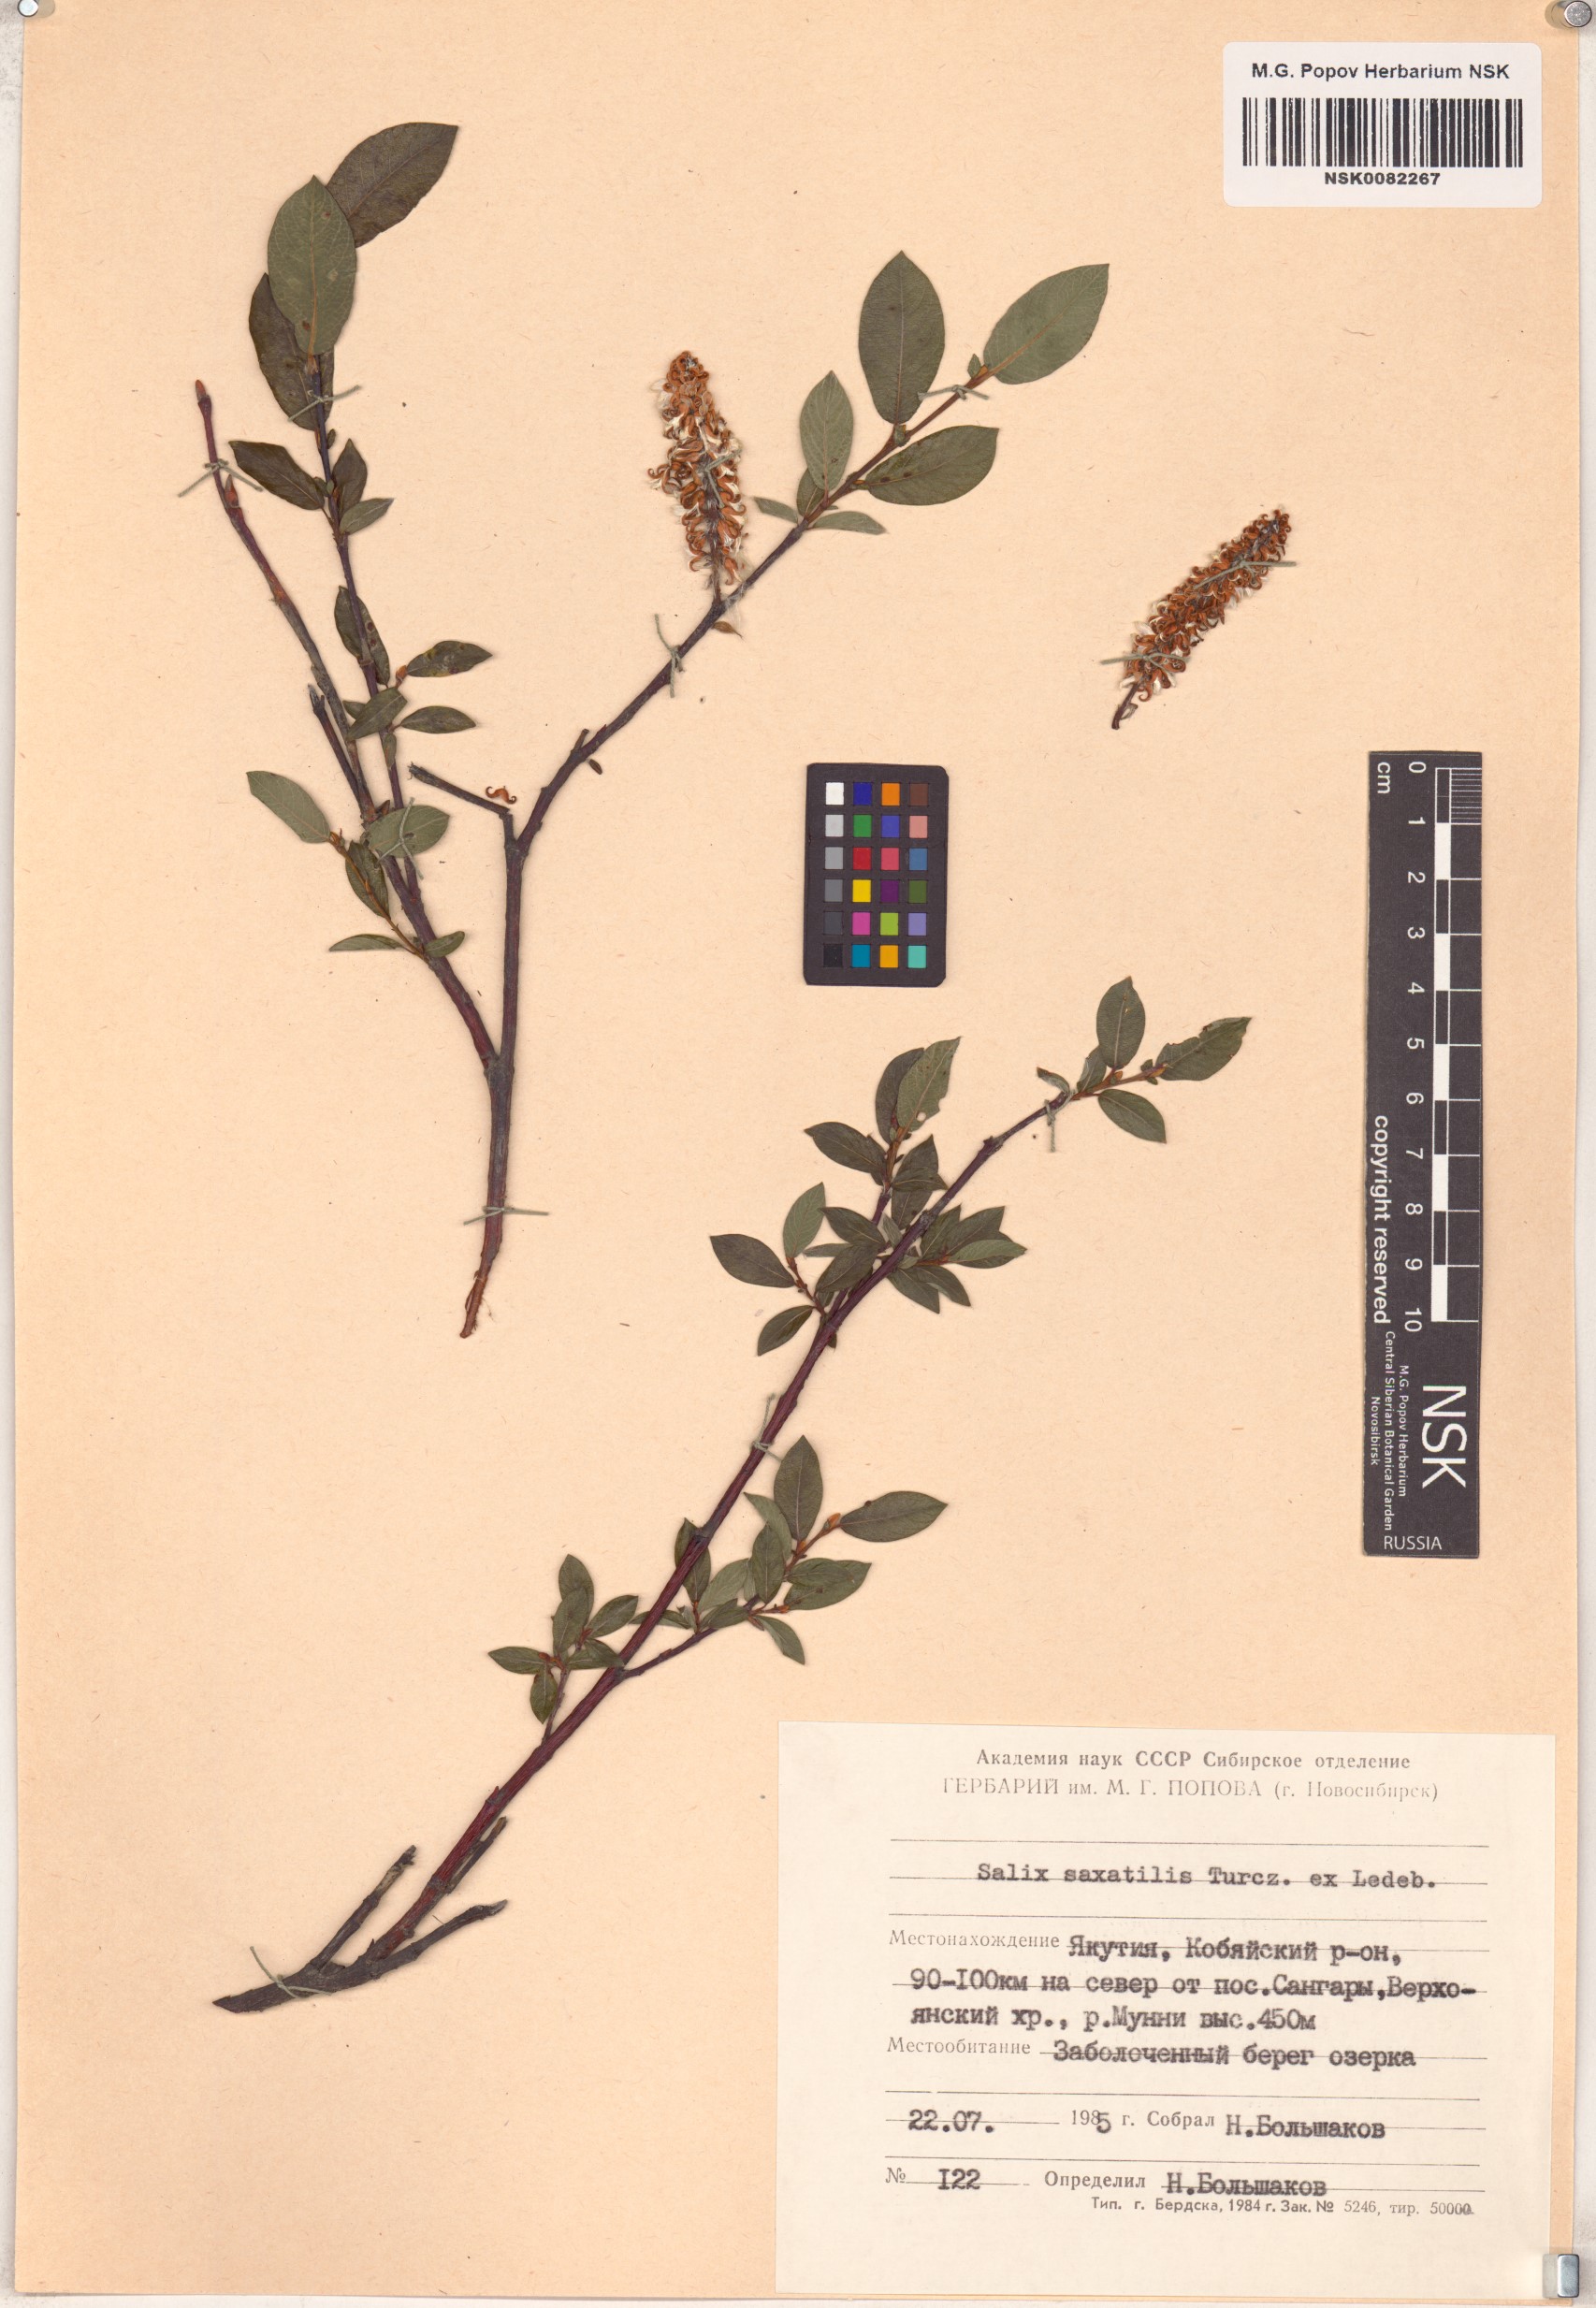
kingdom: Plantae
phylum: Tracheophyta
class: Magnoliopsida
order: Malpighiales
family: Salicaceae
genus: Salix
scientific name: Salix saxatilis
